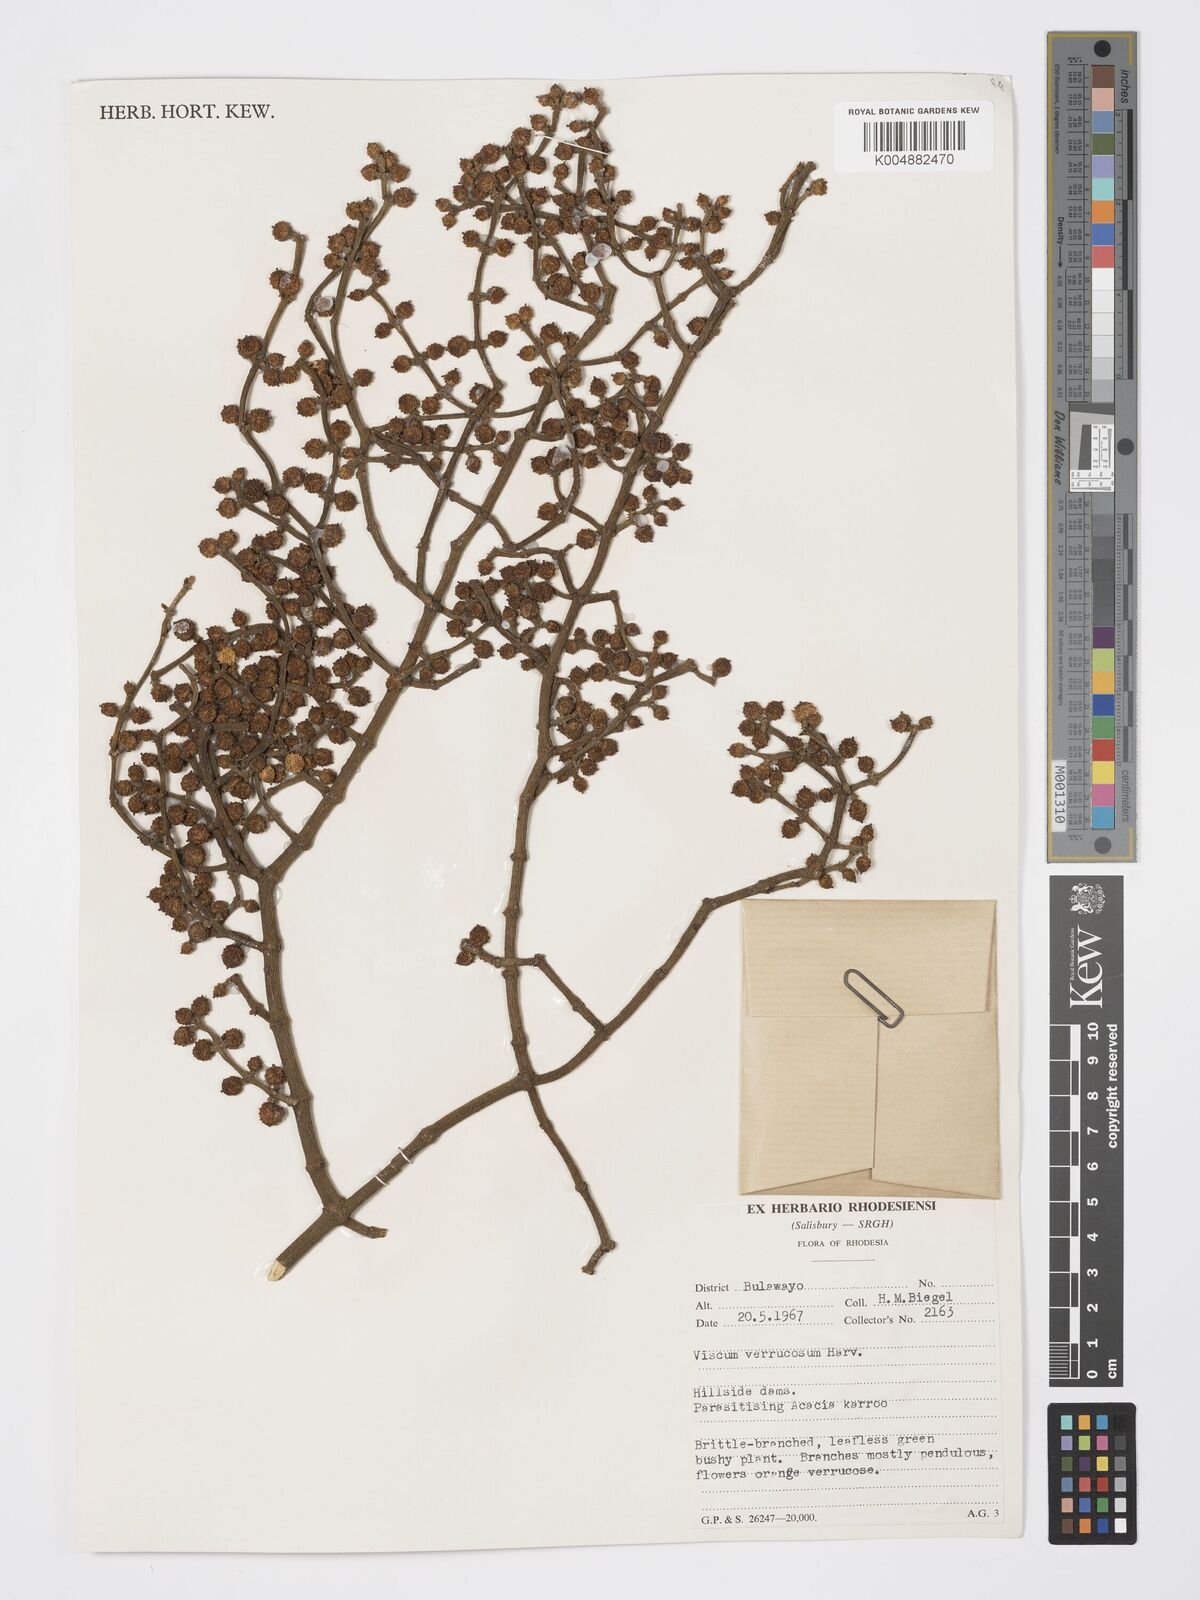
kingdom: Plantae
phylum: Tracheophyta
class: Magnoliopsida
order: Santalales
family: Viscaceae
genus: Viscum
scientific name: Viscum verrucosum
